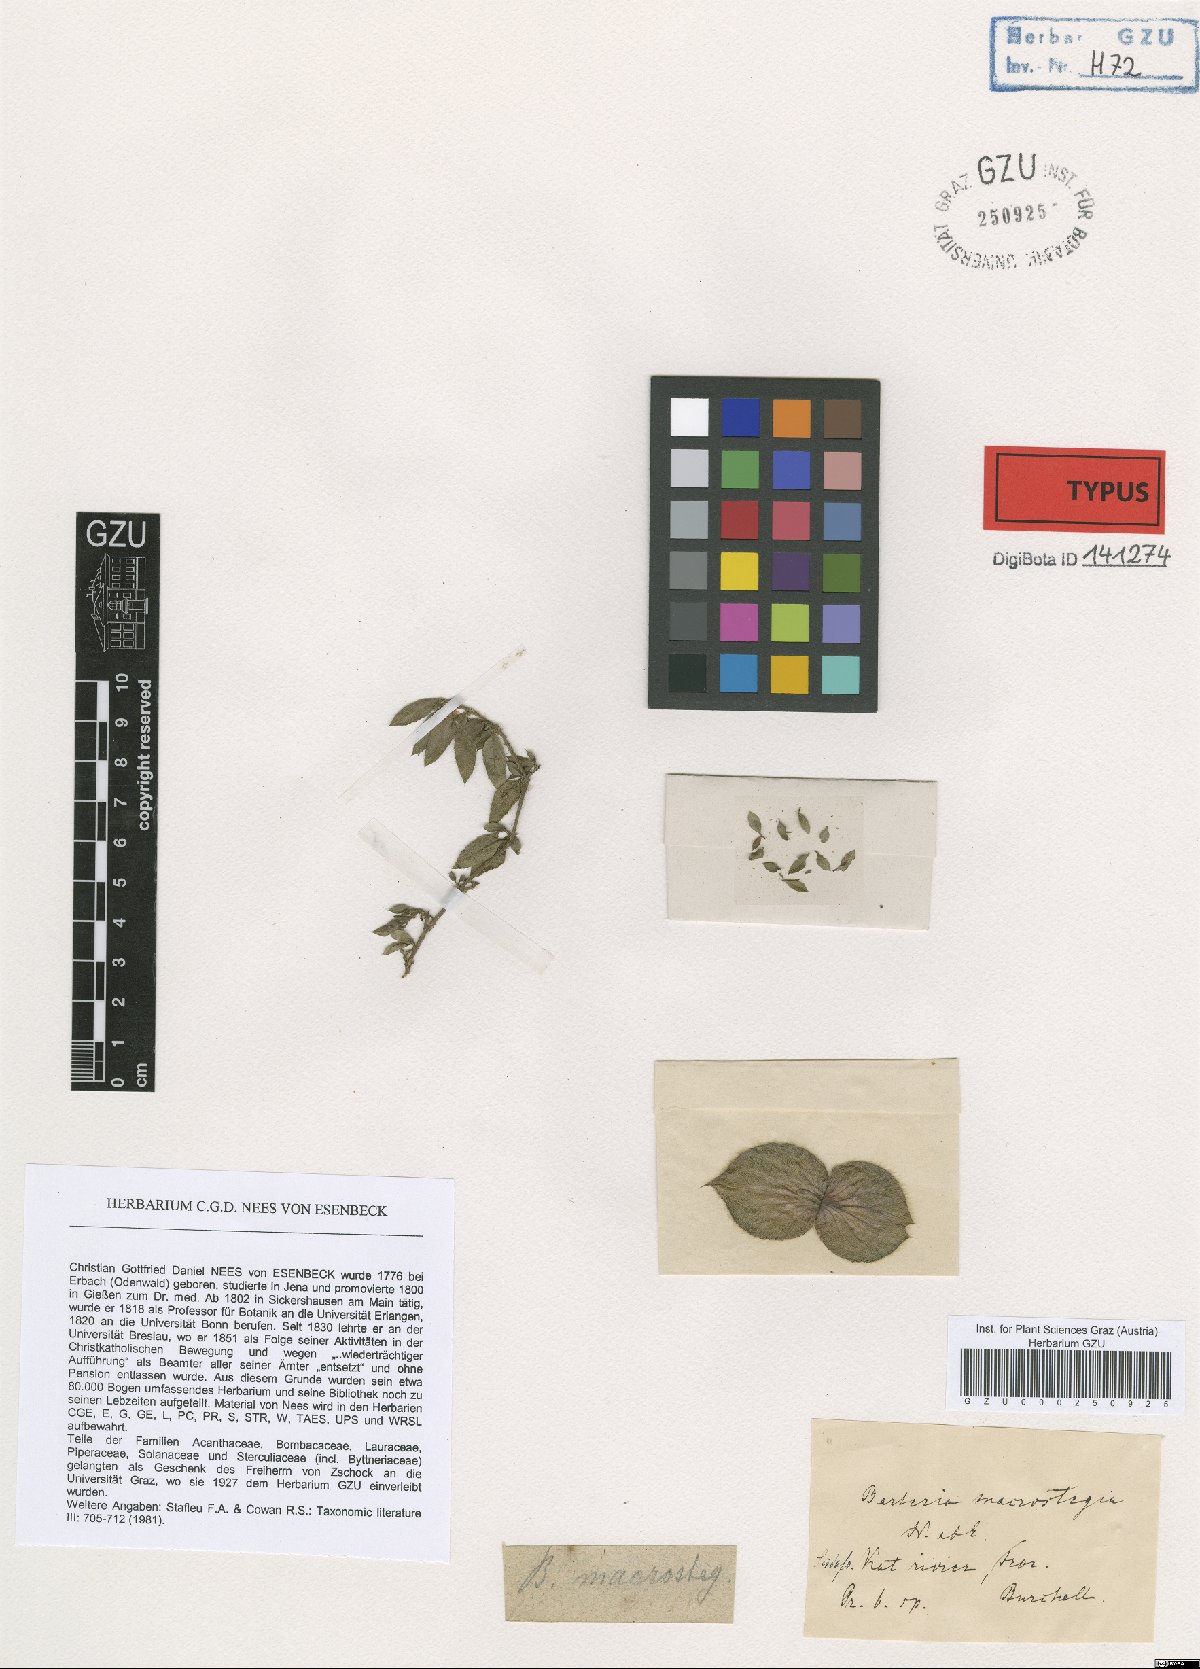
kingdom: Plantae
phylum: Tracheophyta
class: Magnoliopsida
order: Lamiales
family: Acanthaceae
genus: Barleria
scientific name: Barleria macrostegia
